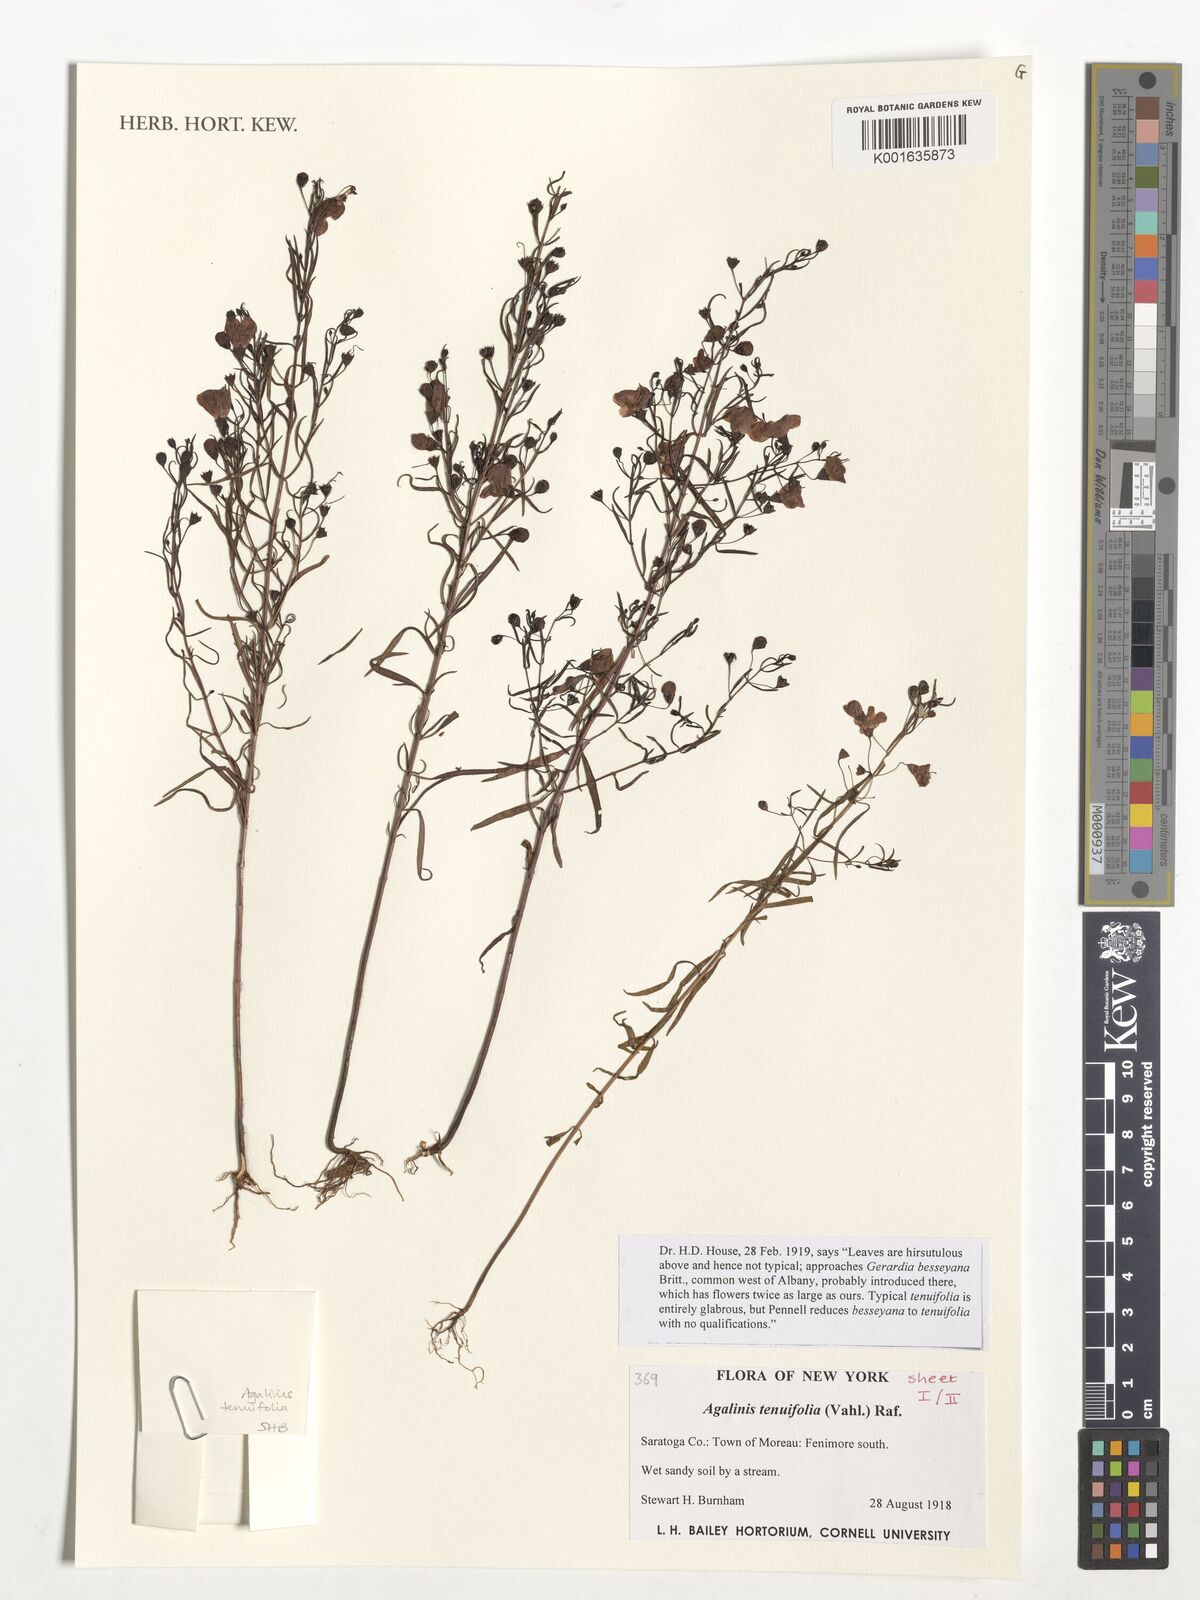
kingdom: Plantae
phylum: Tracheophyta
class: Magnoliopsida
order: Lamiales
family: Orobanchaceae
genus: Agalinis
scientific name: Agalinis tenuifolia
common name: Slender agalinis
